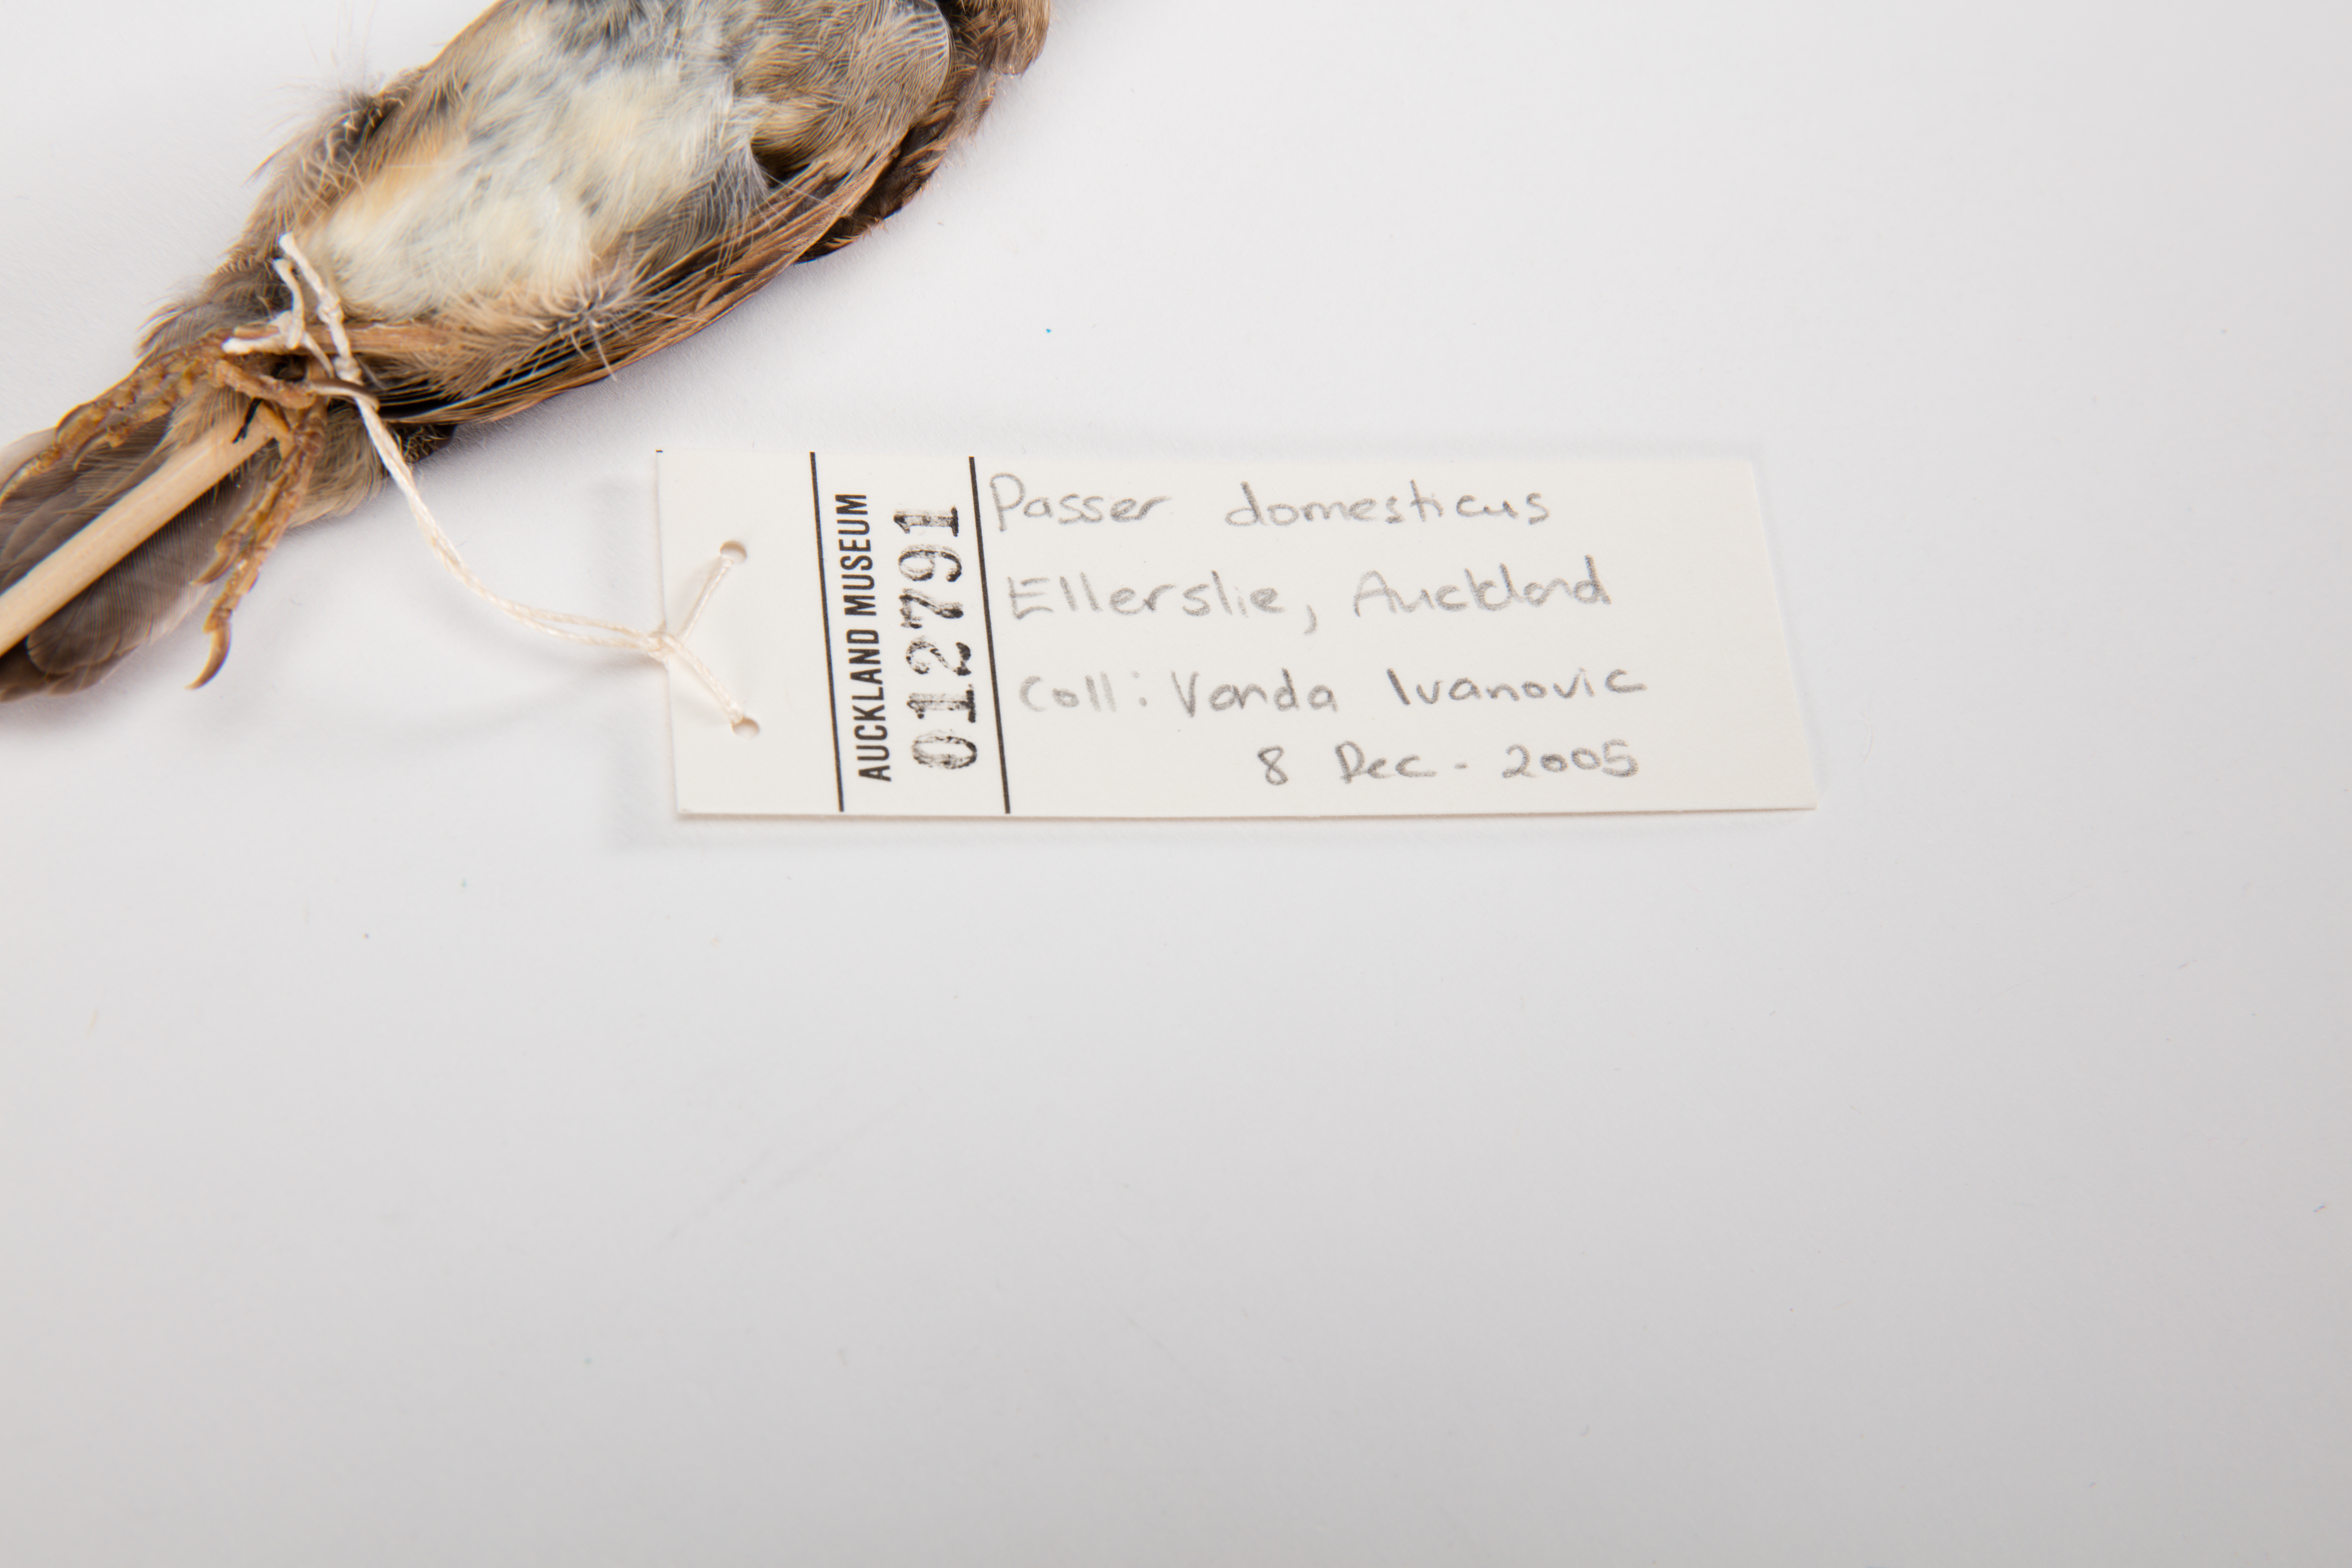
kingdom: Animalia
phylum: Chordata
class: Aves
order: Passeriformes
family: Passeridae
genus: Passer
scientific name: Passer domesticus
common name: House sparrow
